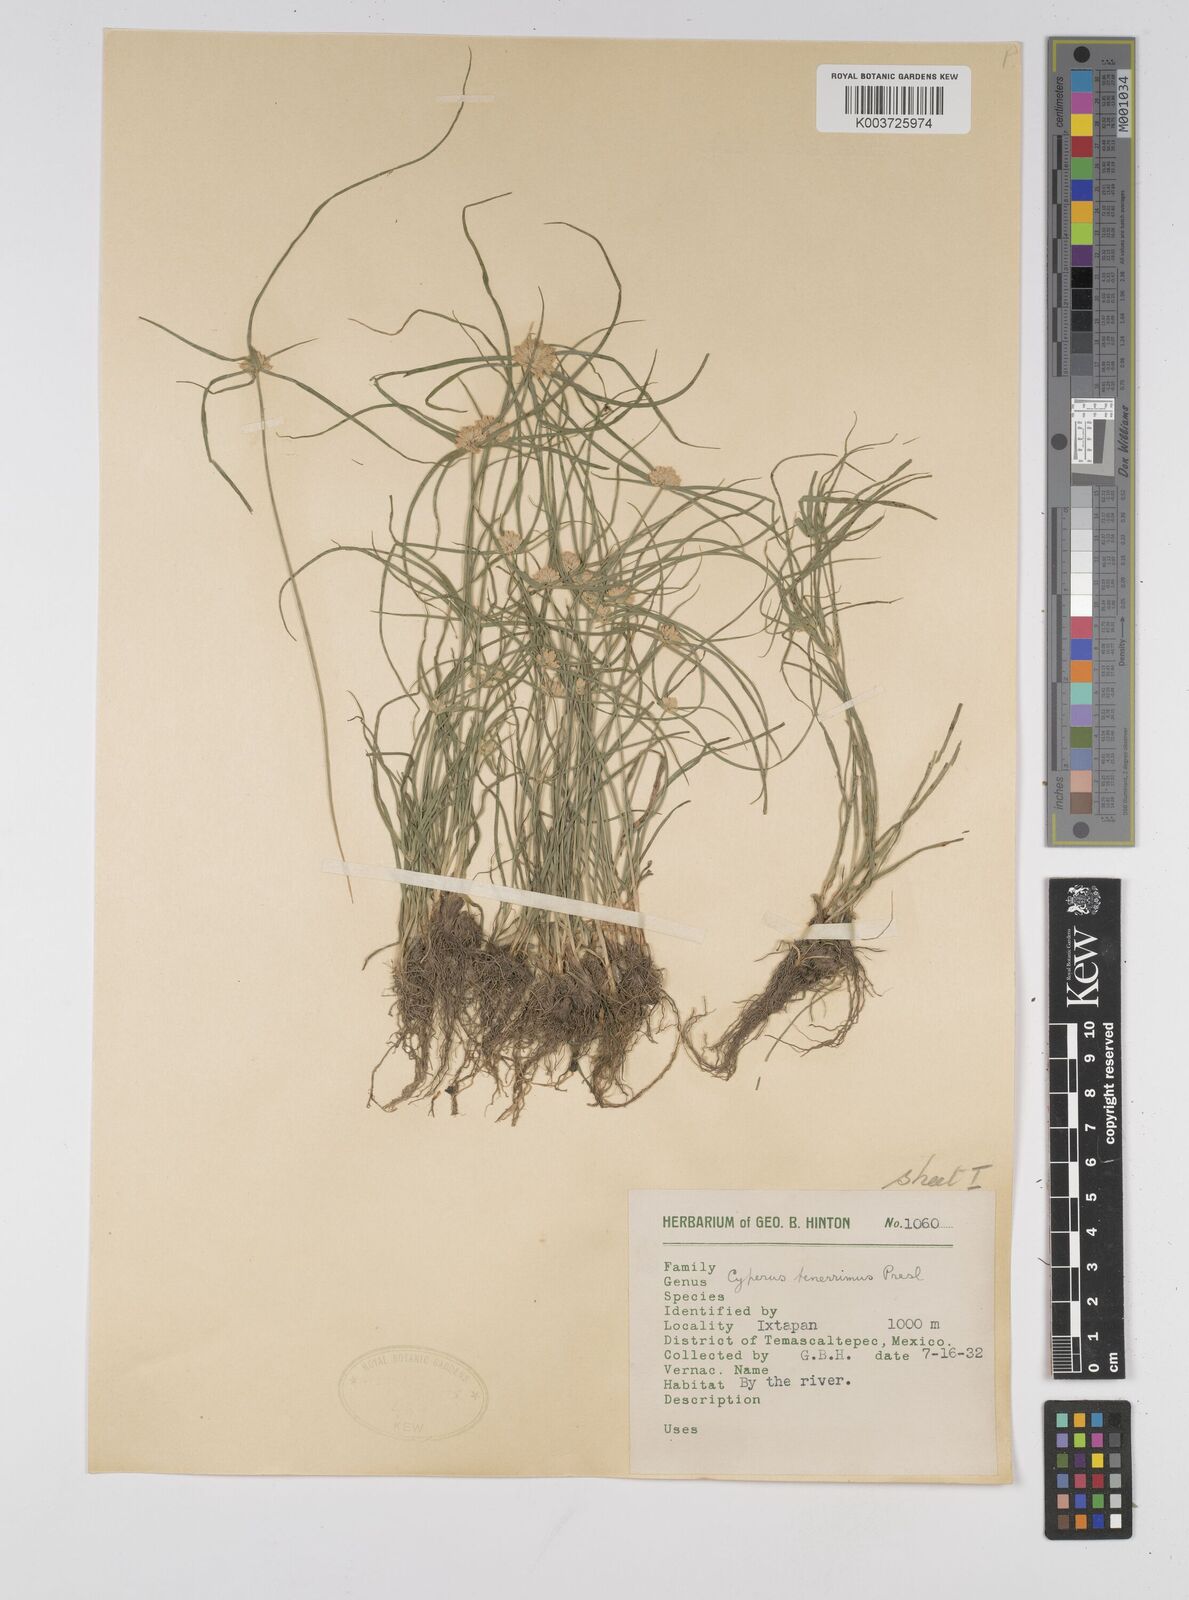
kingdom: Plantae
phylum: Tracheophyta
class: Liliopsida
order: Poales
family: Cyperaceae
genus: Cyperus
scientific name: Cyperus tenerrimus
